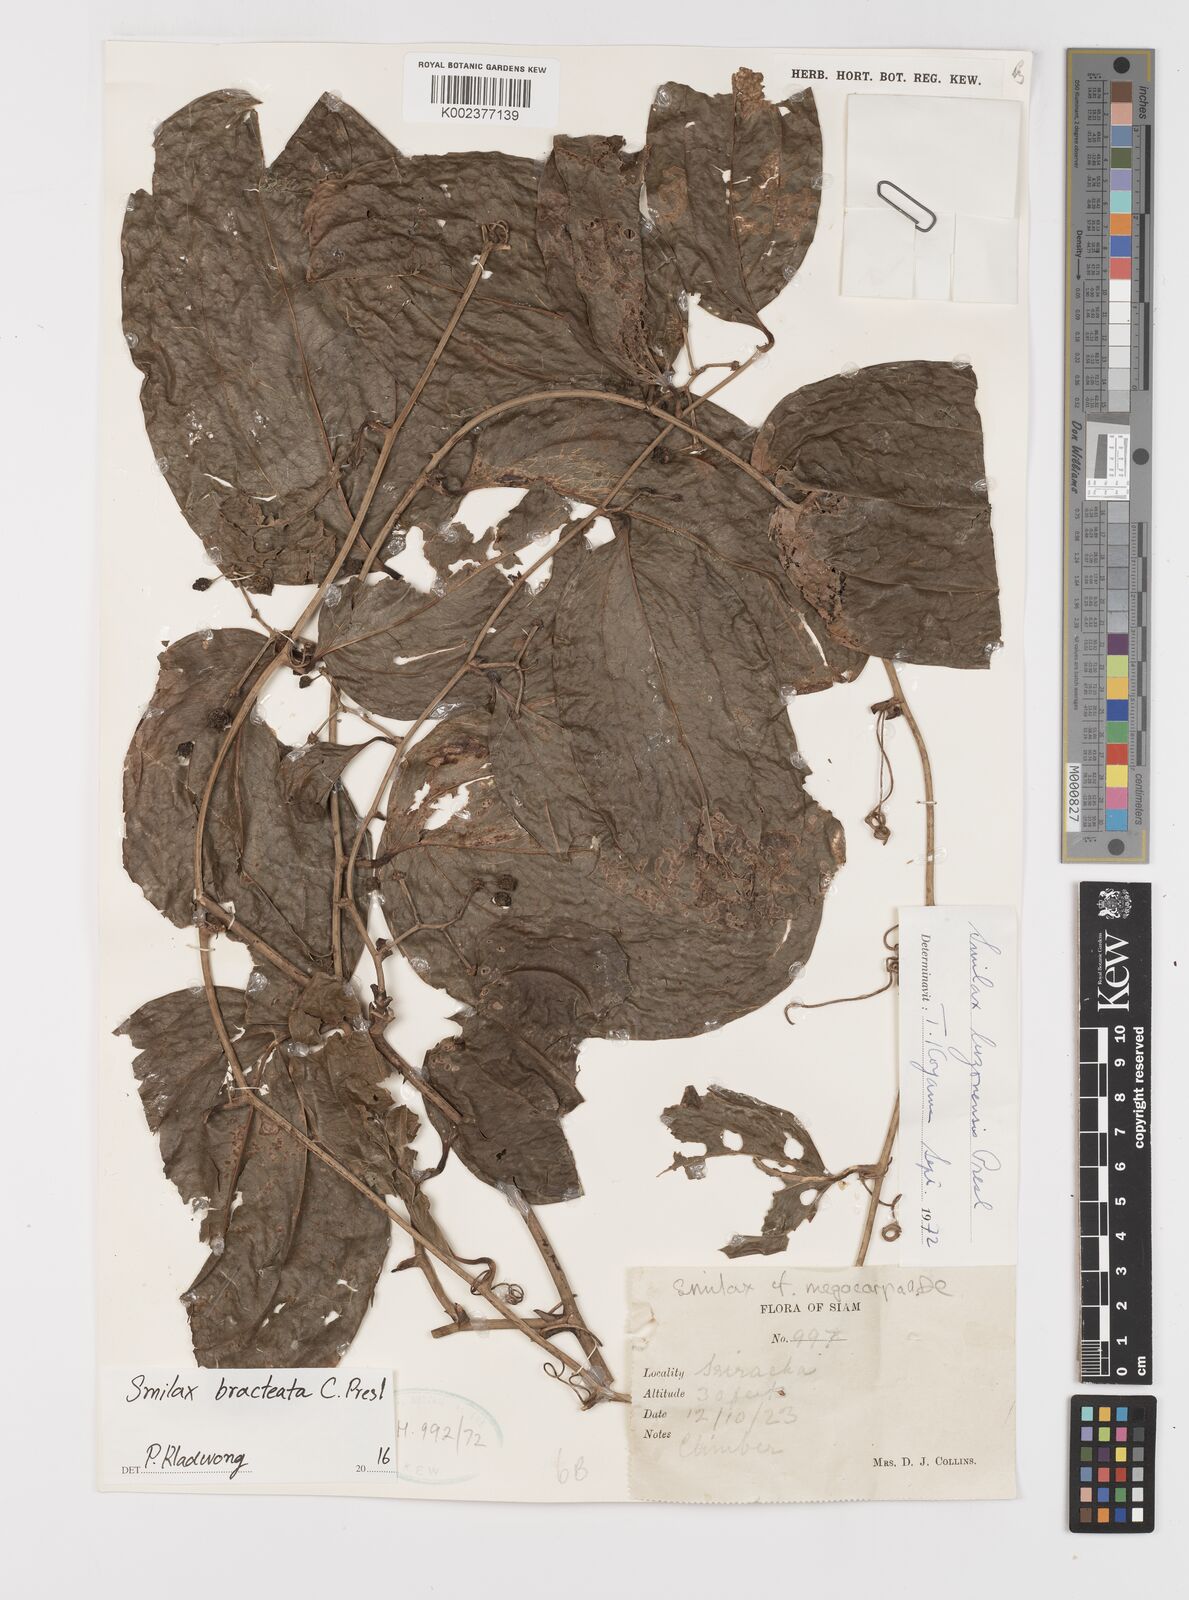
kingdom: Plantae
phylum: Tracheophyta
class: Liliopsida
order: Liliales
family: Smilacaceae
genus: Smilax
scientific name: Smilax bracteata
